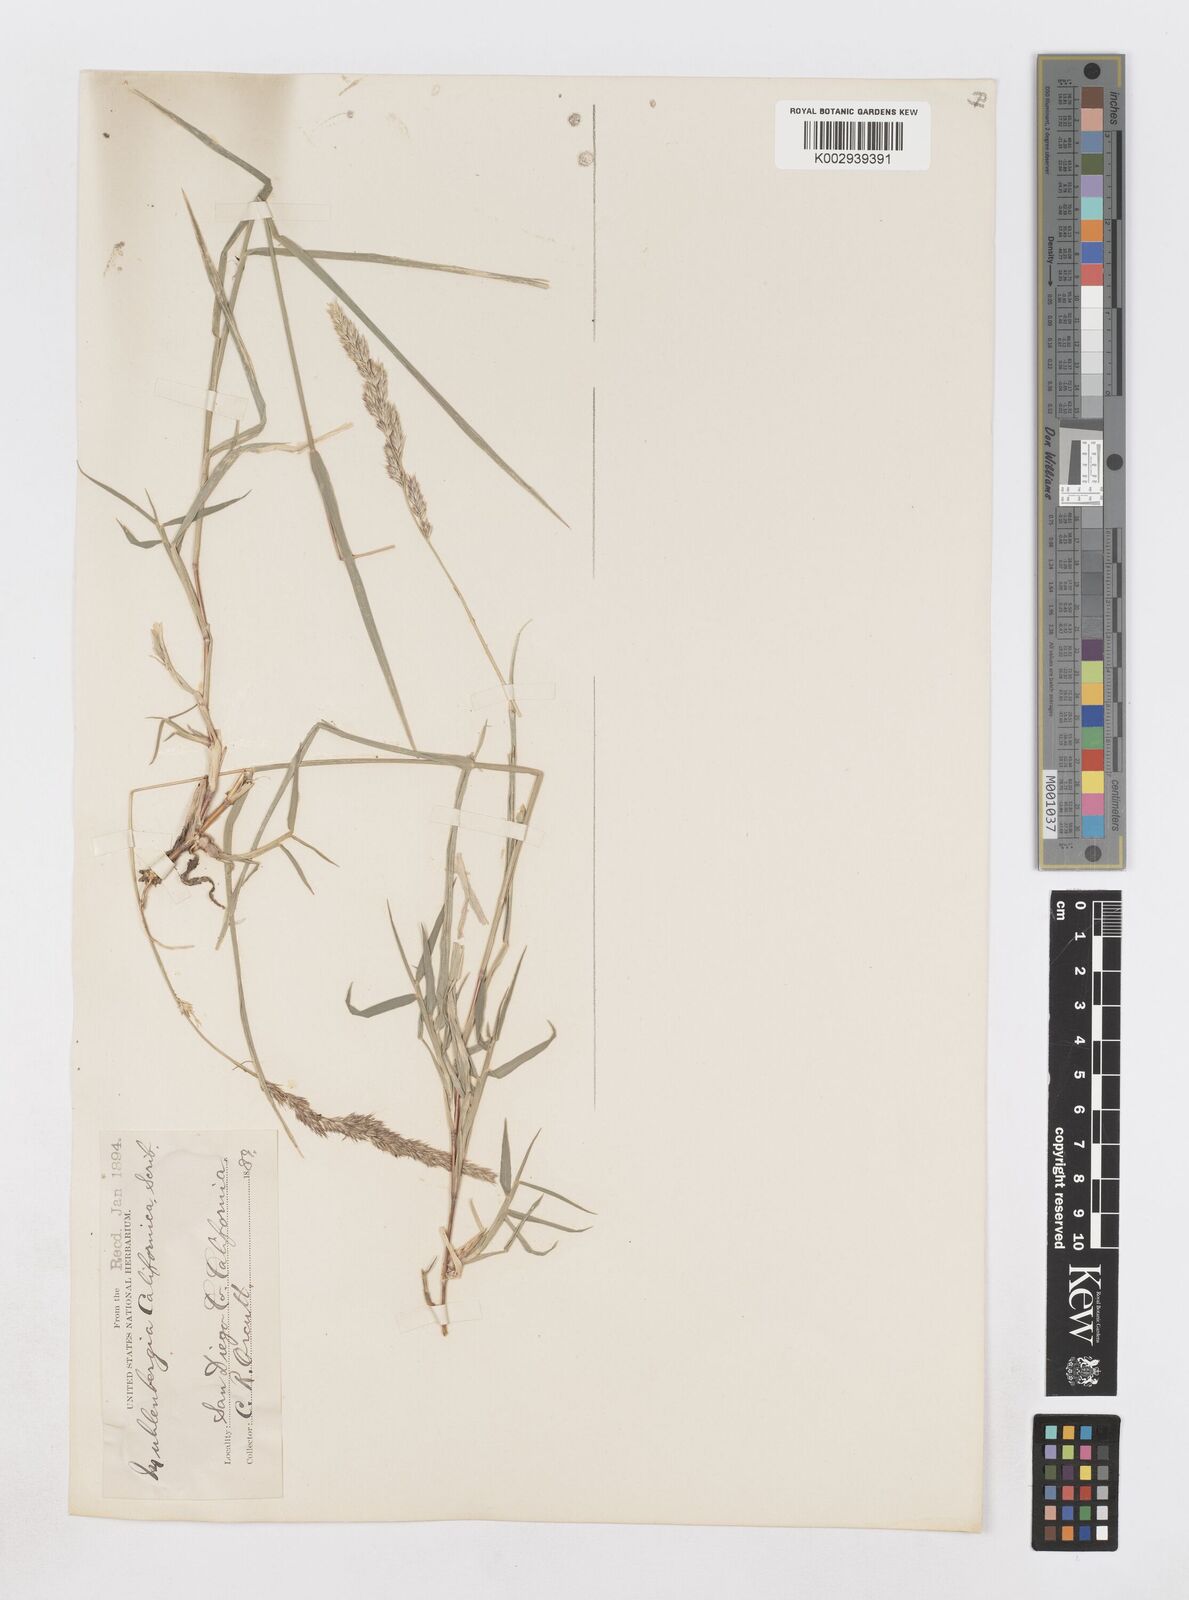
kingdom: Plantae
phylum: Tracheophyta
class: Liliopsida
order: Poales
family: Poaceae
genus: Muhlenbergia
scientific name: Muhlenbergia californica
